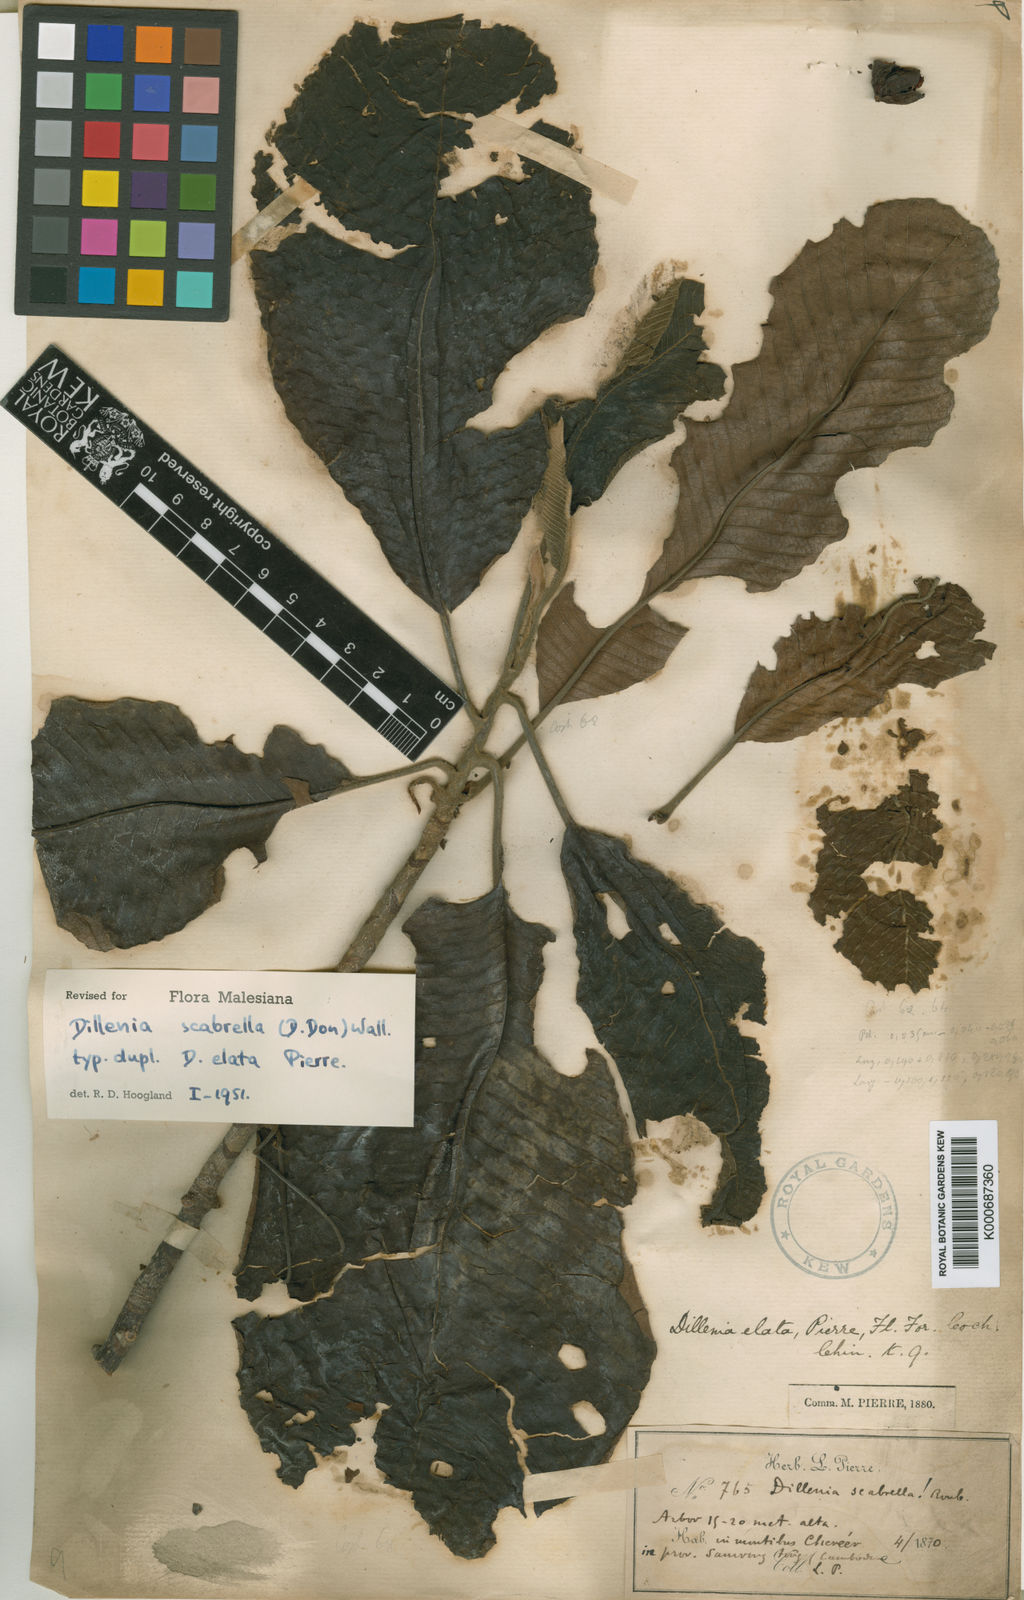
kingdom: Plantae
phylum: Tracheophyta
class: Magnoliopsida
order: Dilleniales
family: Dilleniaceae
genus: Dillenia
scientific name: Dillenia scabrella
